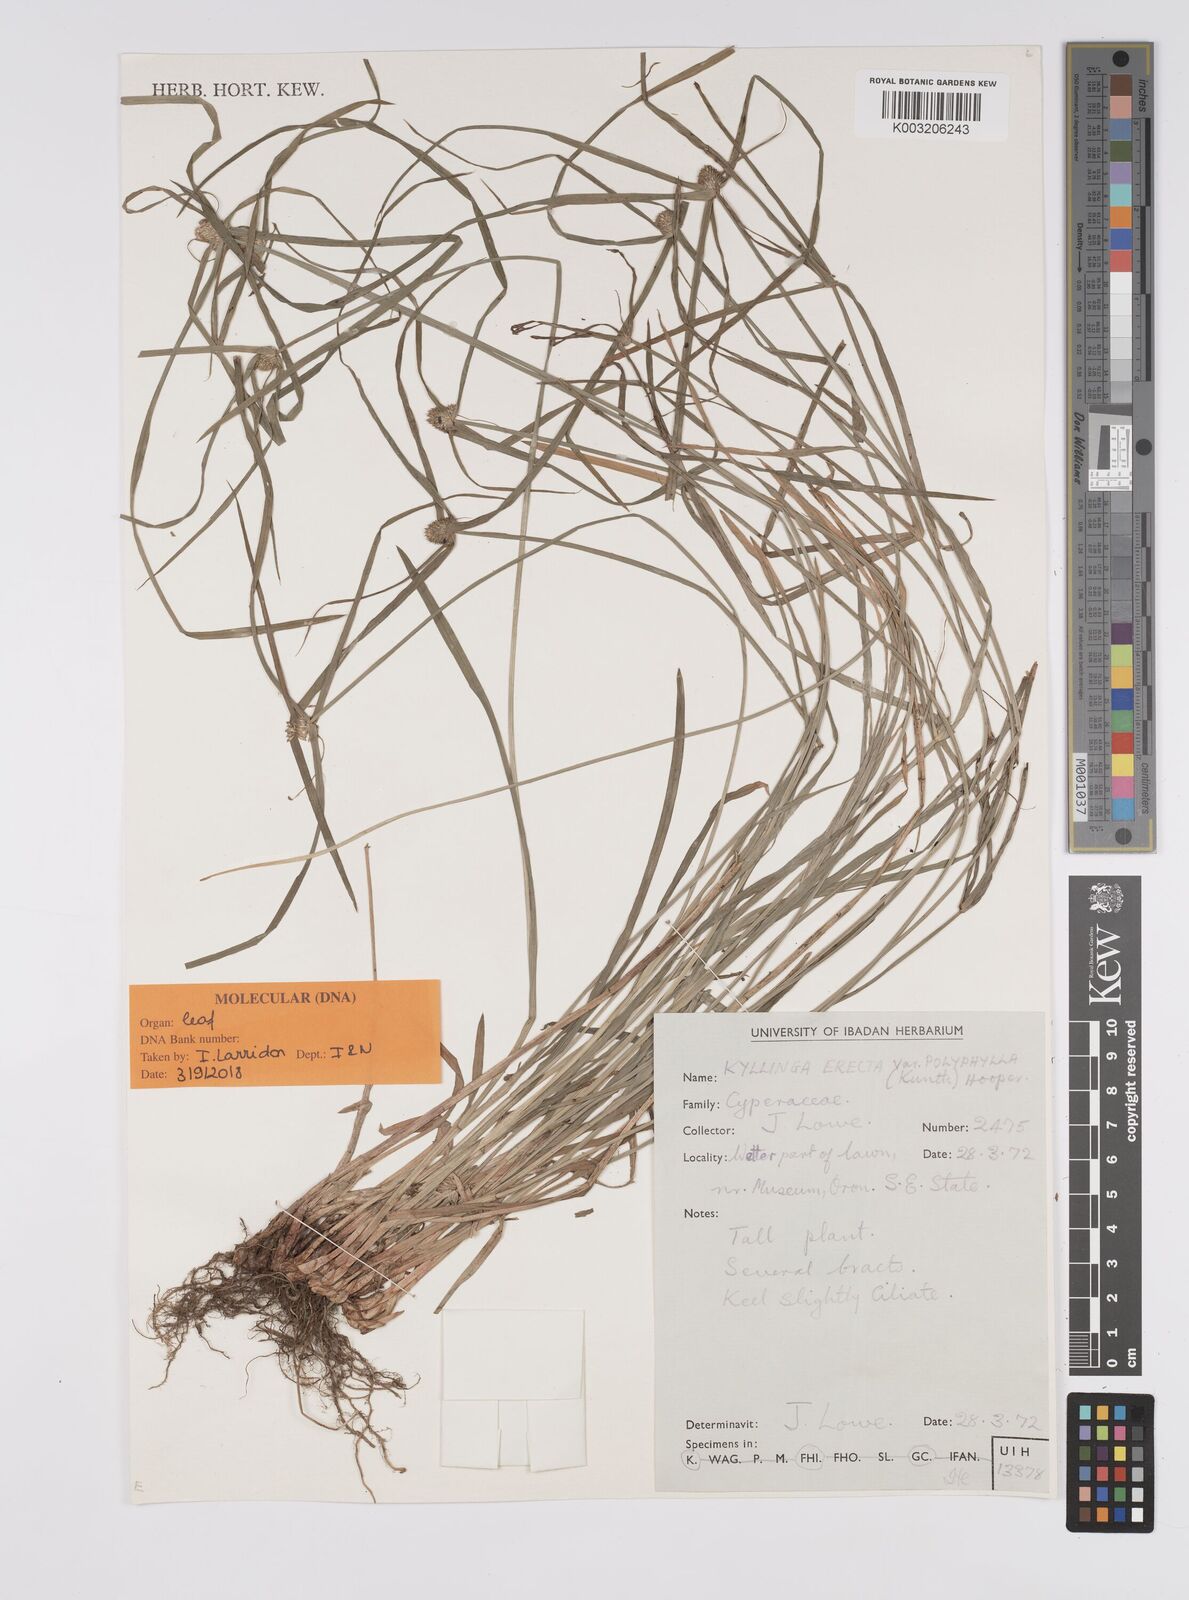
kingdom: Plantae
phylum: Tracheophyta
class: Liliopsida
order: Poales
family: Cyperaceae
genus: Cyperus
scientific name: Cyperus
